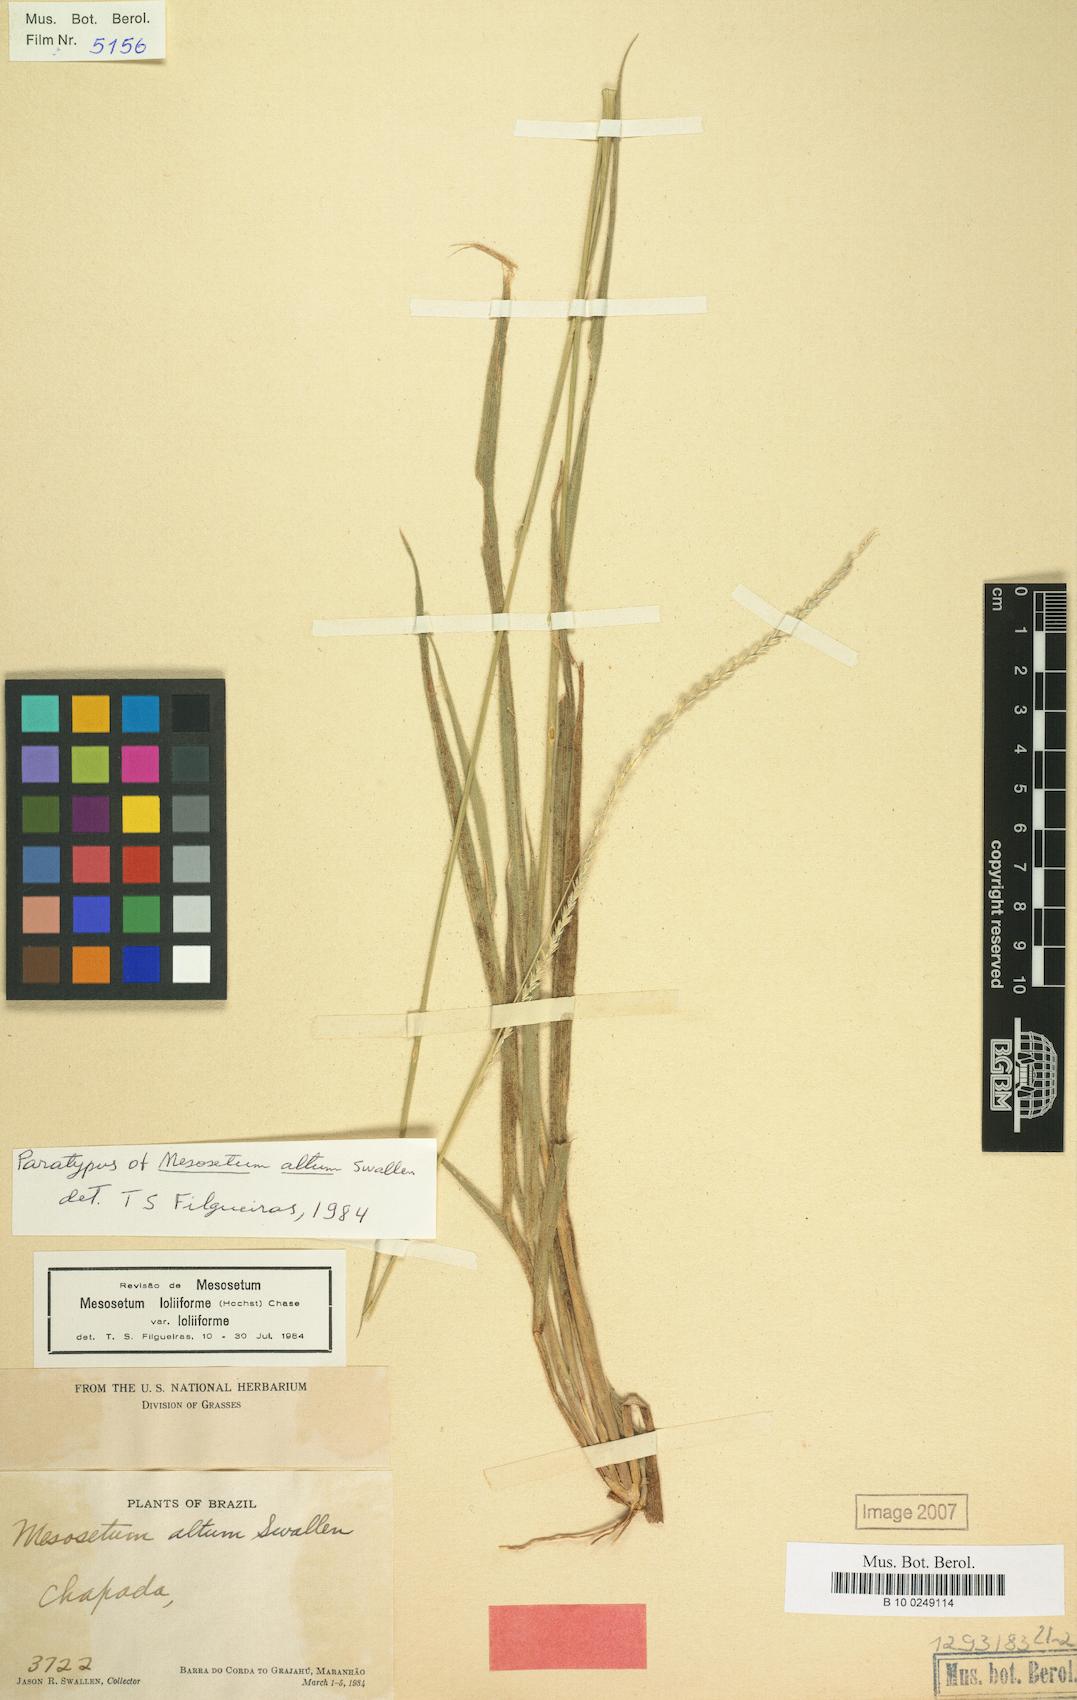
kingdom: Plantae
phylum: Tracheophyta
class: Liliopsida
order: Poales
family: Poaceae
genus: Mesosetum
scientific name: Mesosetum loliiforme
